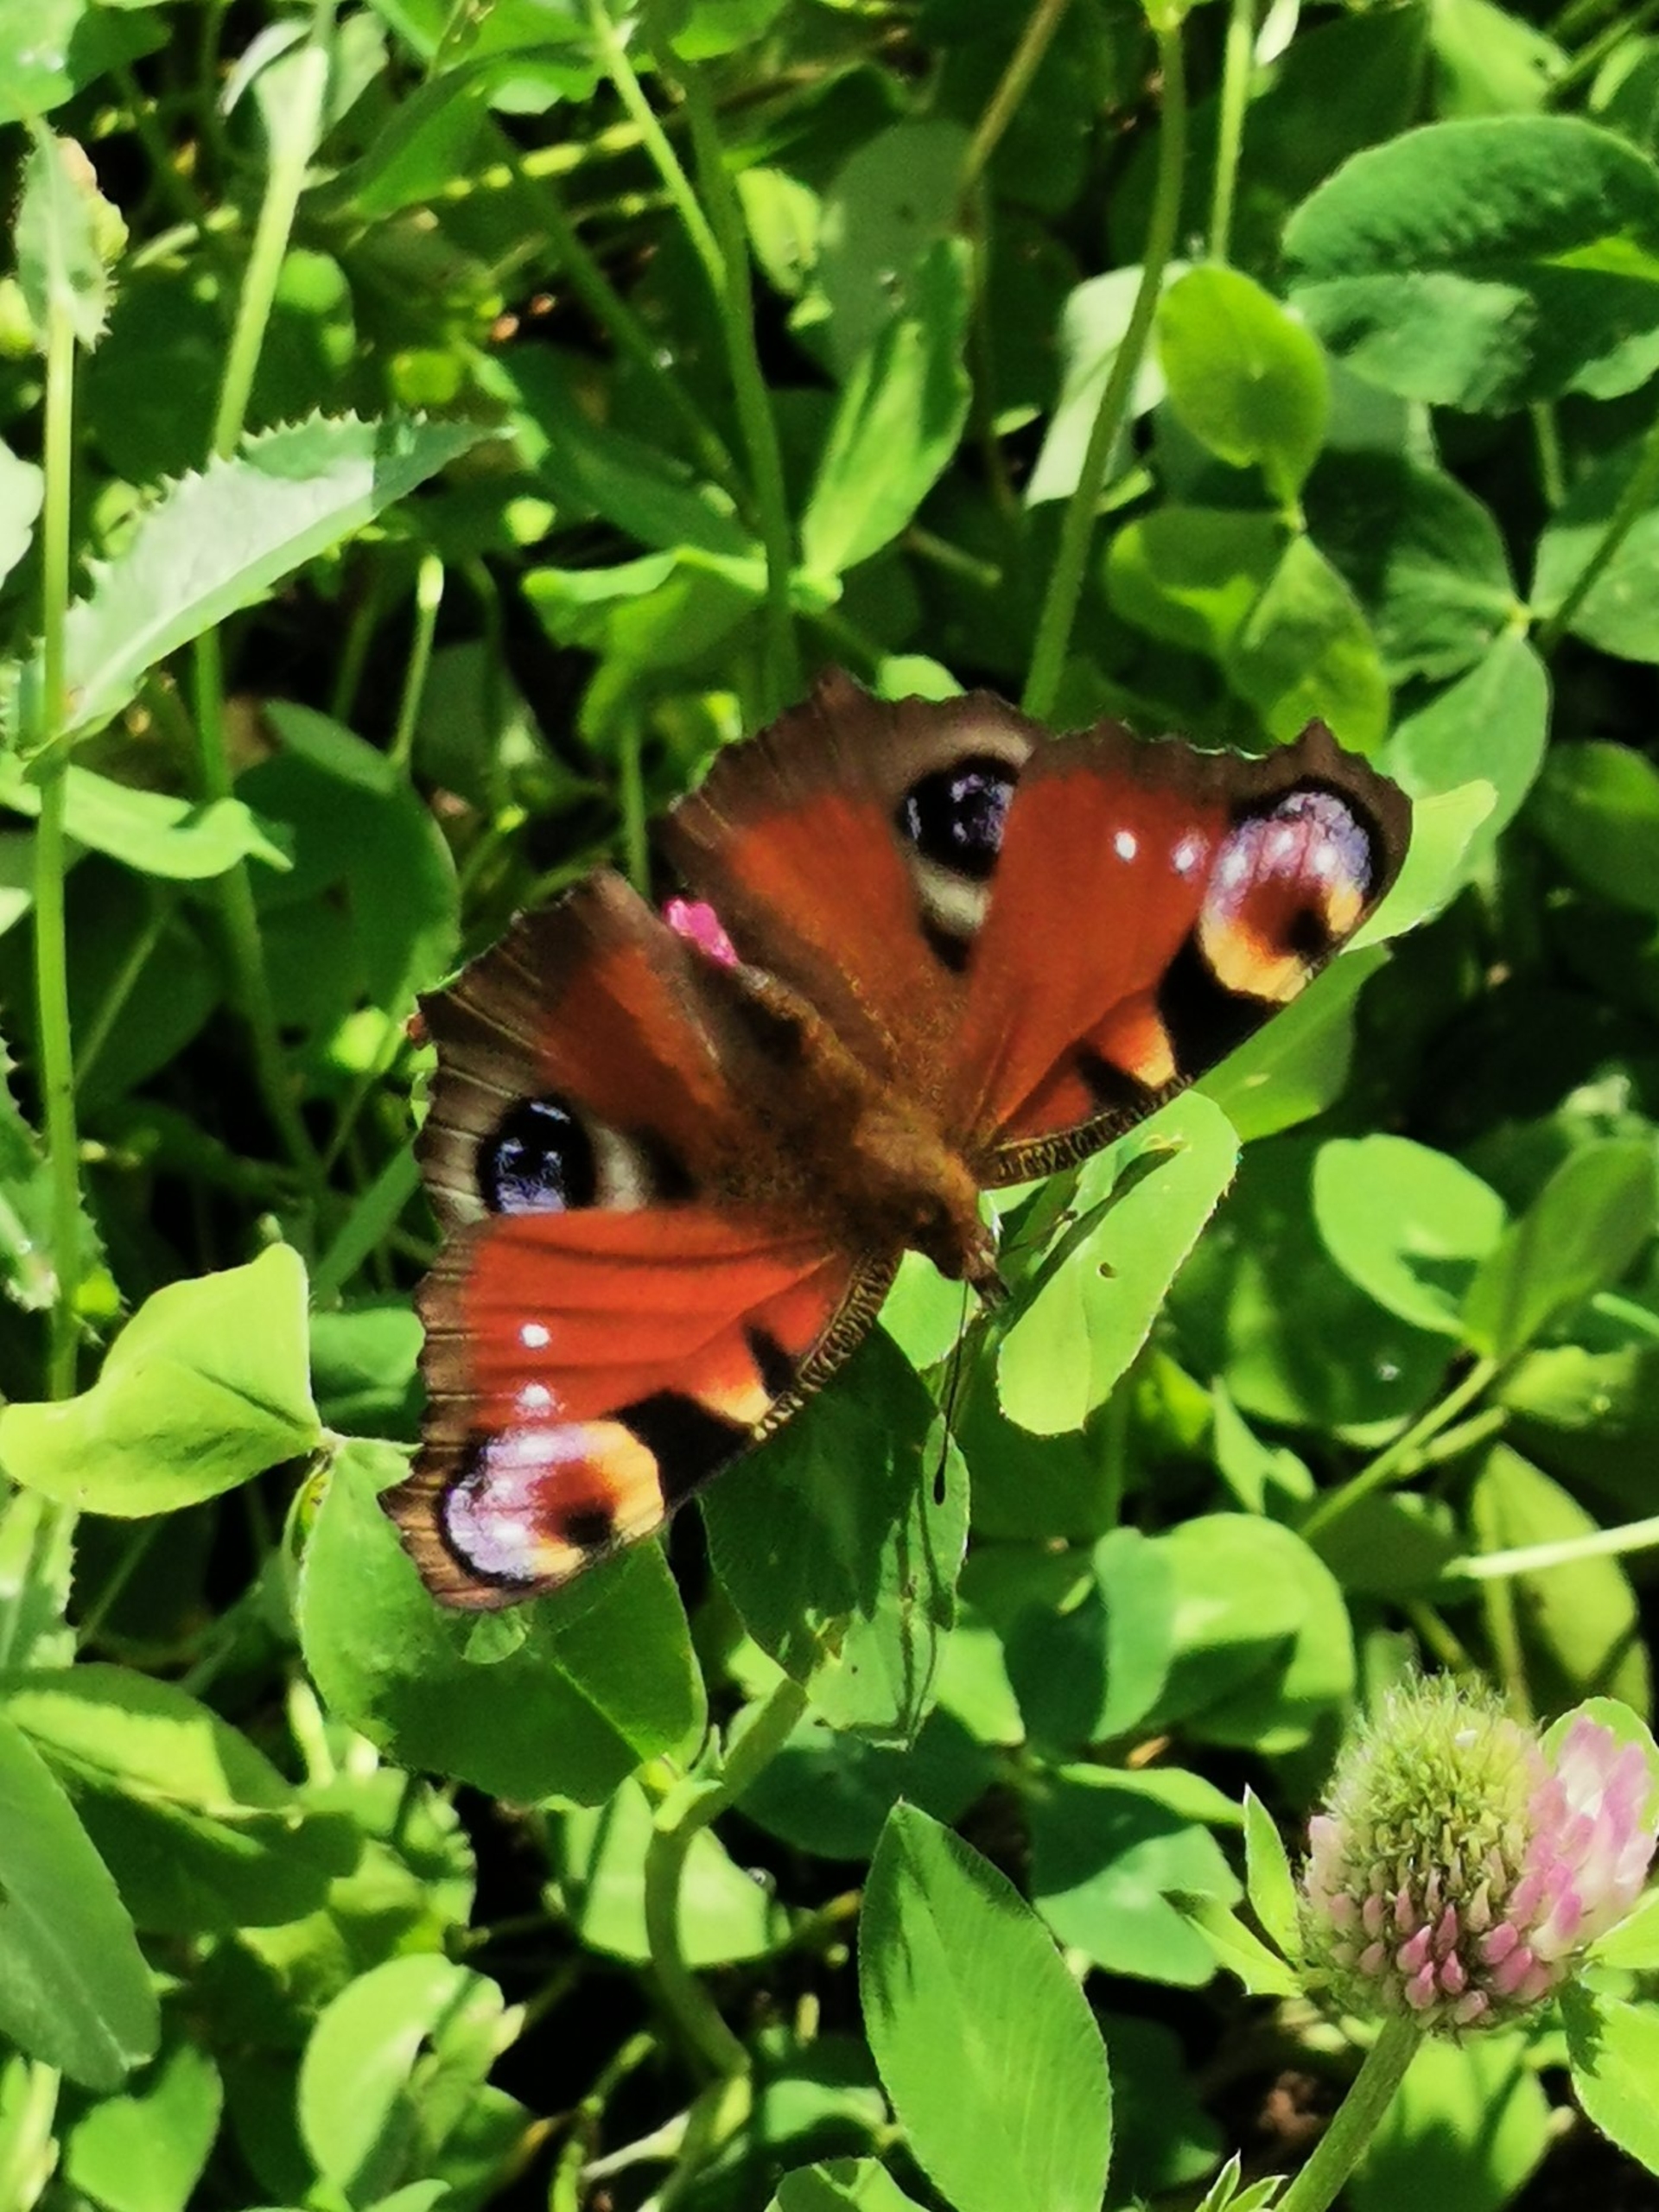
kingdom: Animalia
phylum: Arthropoda
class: Insecta
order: Lepidoptera
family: Nymphalidae
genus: Aglais
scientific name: Aglais io
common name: Dagpåfugleøje
